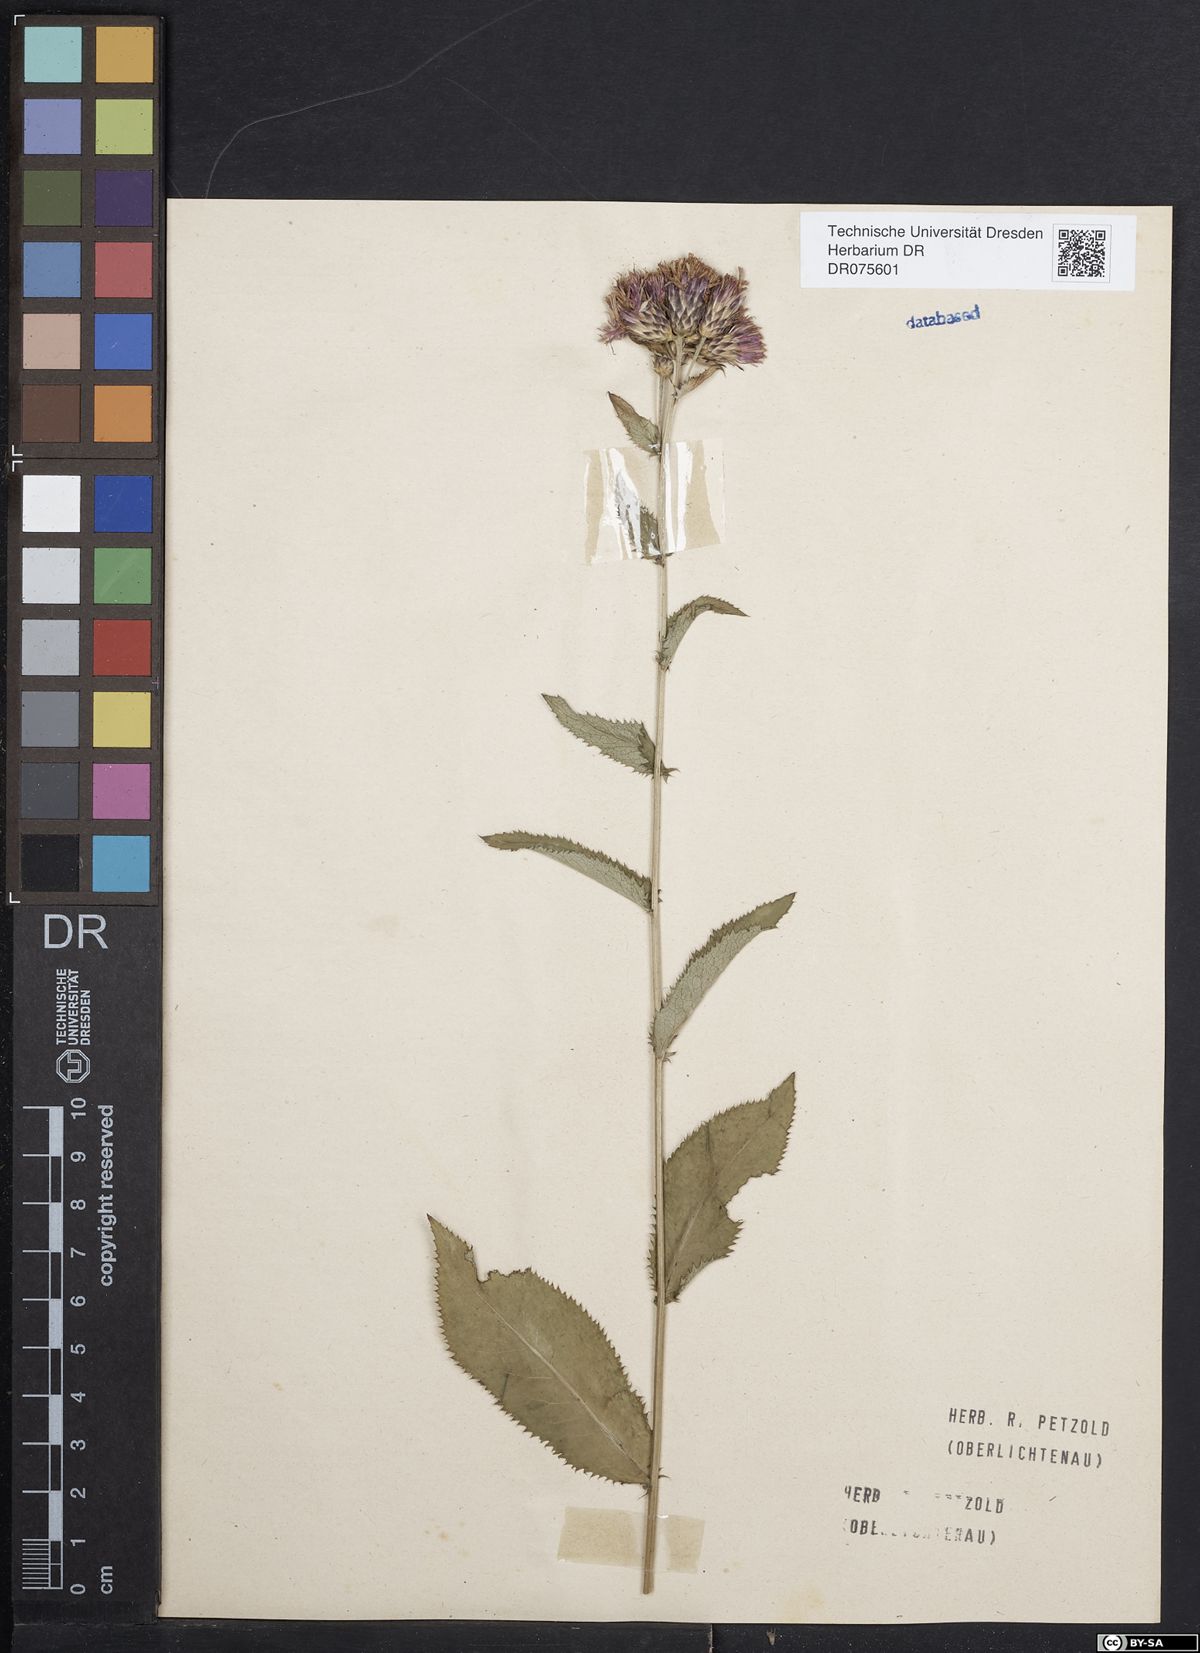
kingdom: Plantae
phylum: Tracheophyta
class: Magnoliopsida
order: Asterales
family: Asteraceae
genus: Serratula
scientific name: Serratula tinctoria
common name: Saw-wort
